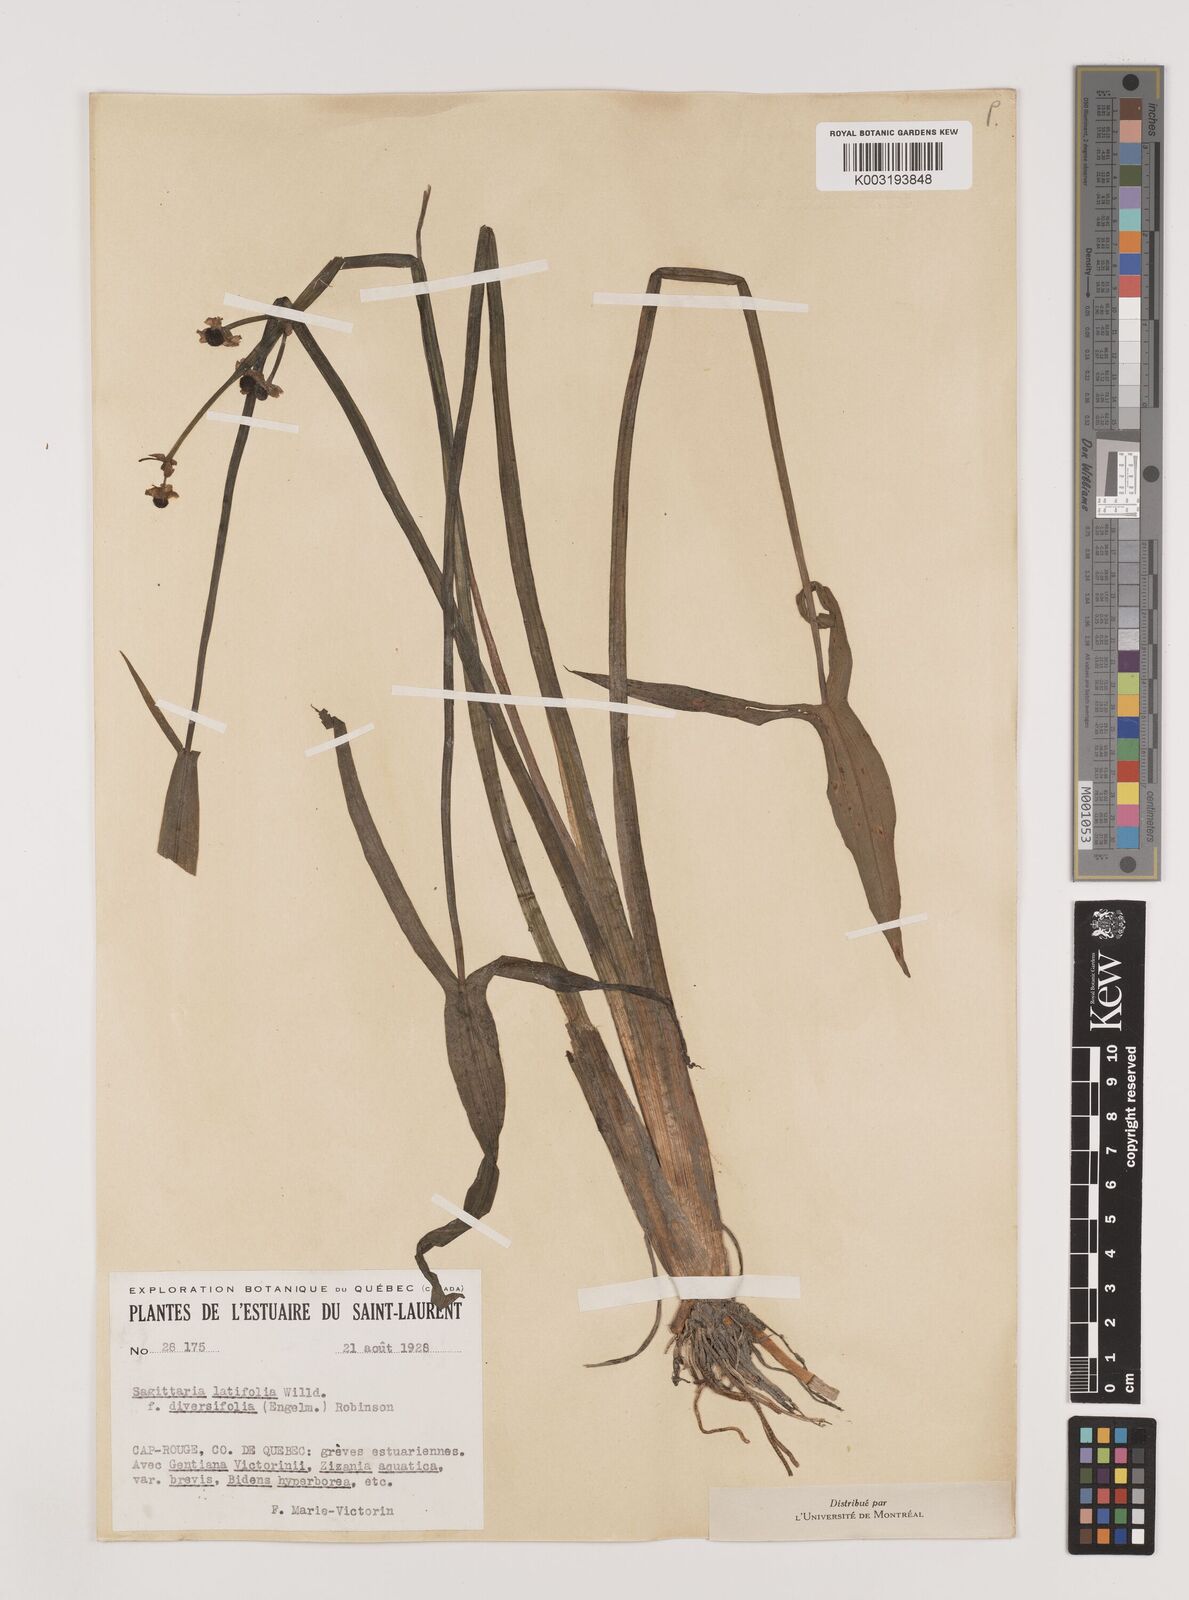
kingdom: Plantae
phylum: Tracheophyta
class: Liliopsida
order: Alismatales
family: Alismataceae
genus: Sagittaria
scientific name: Sagittaria latifolia
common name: Duck-potato
